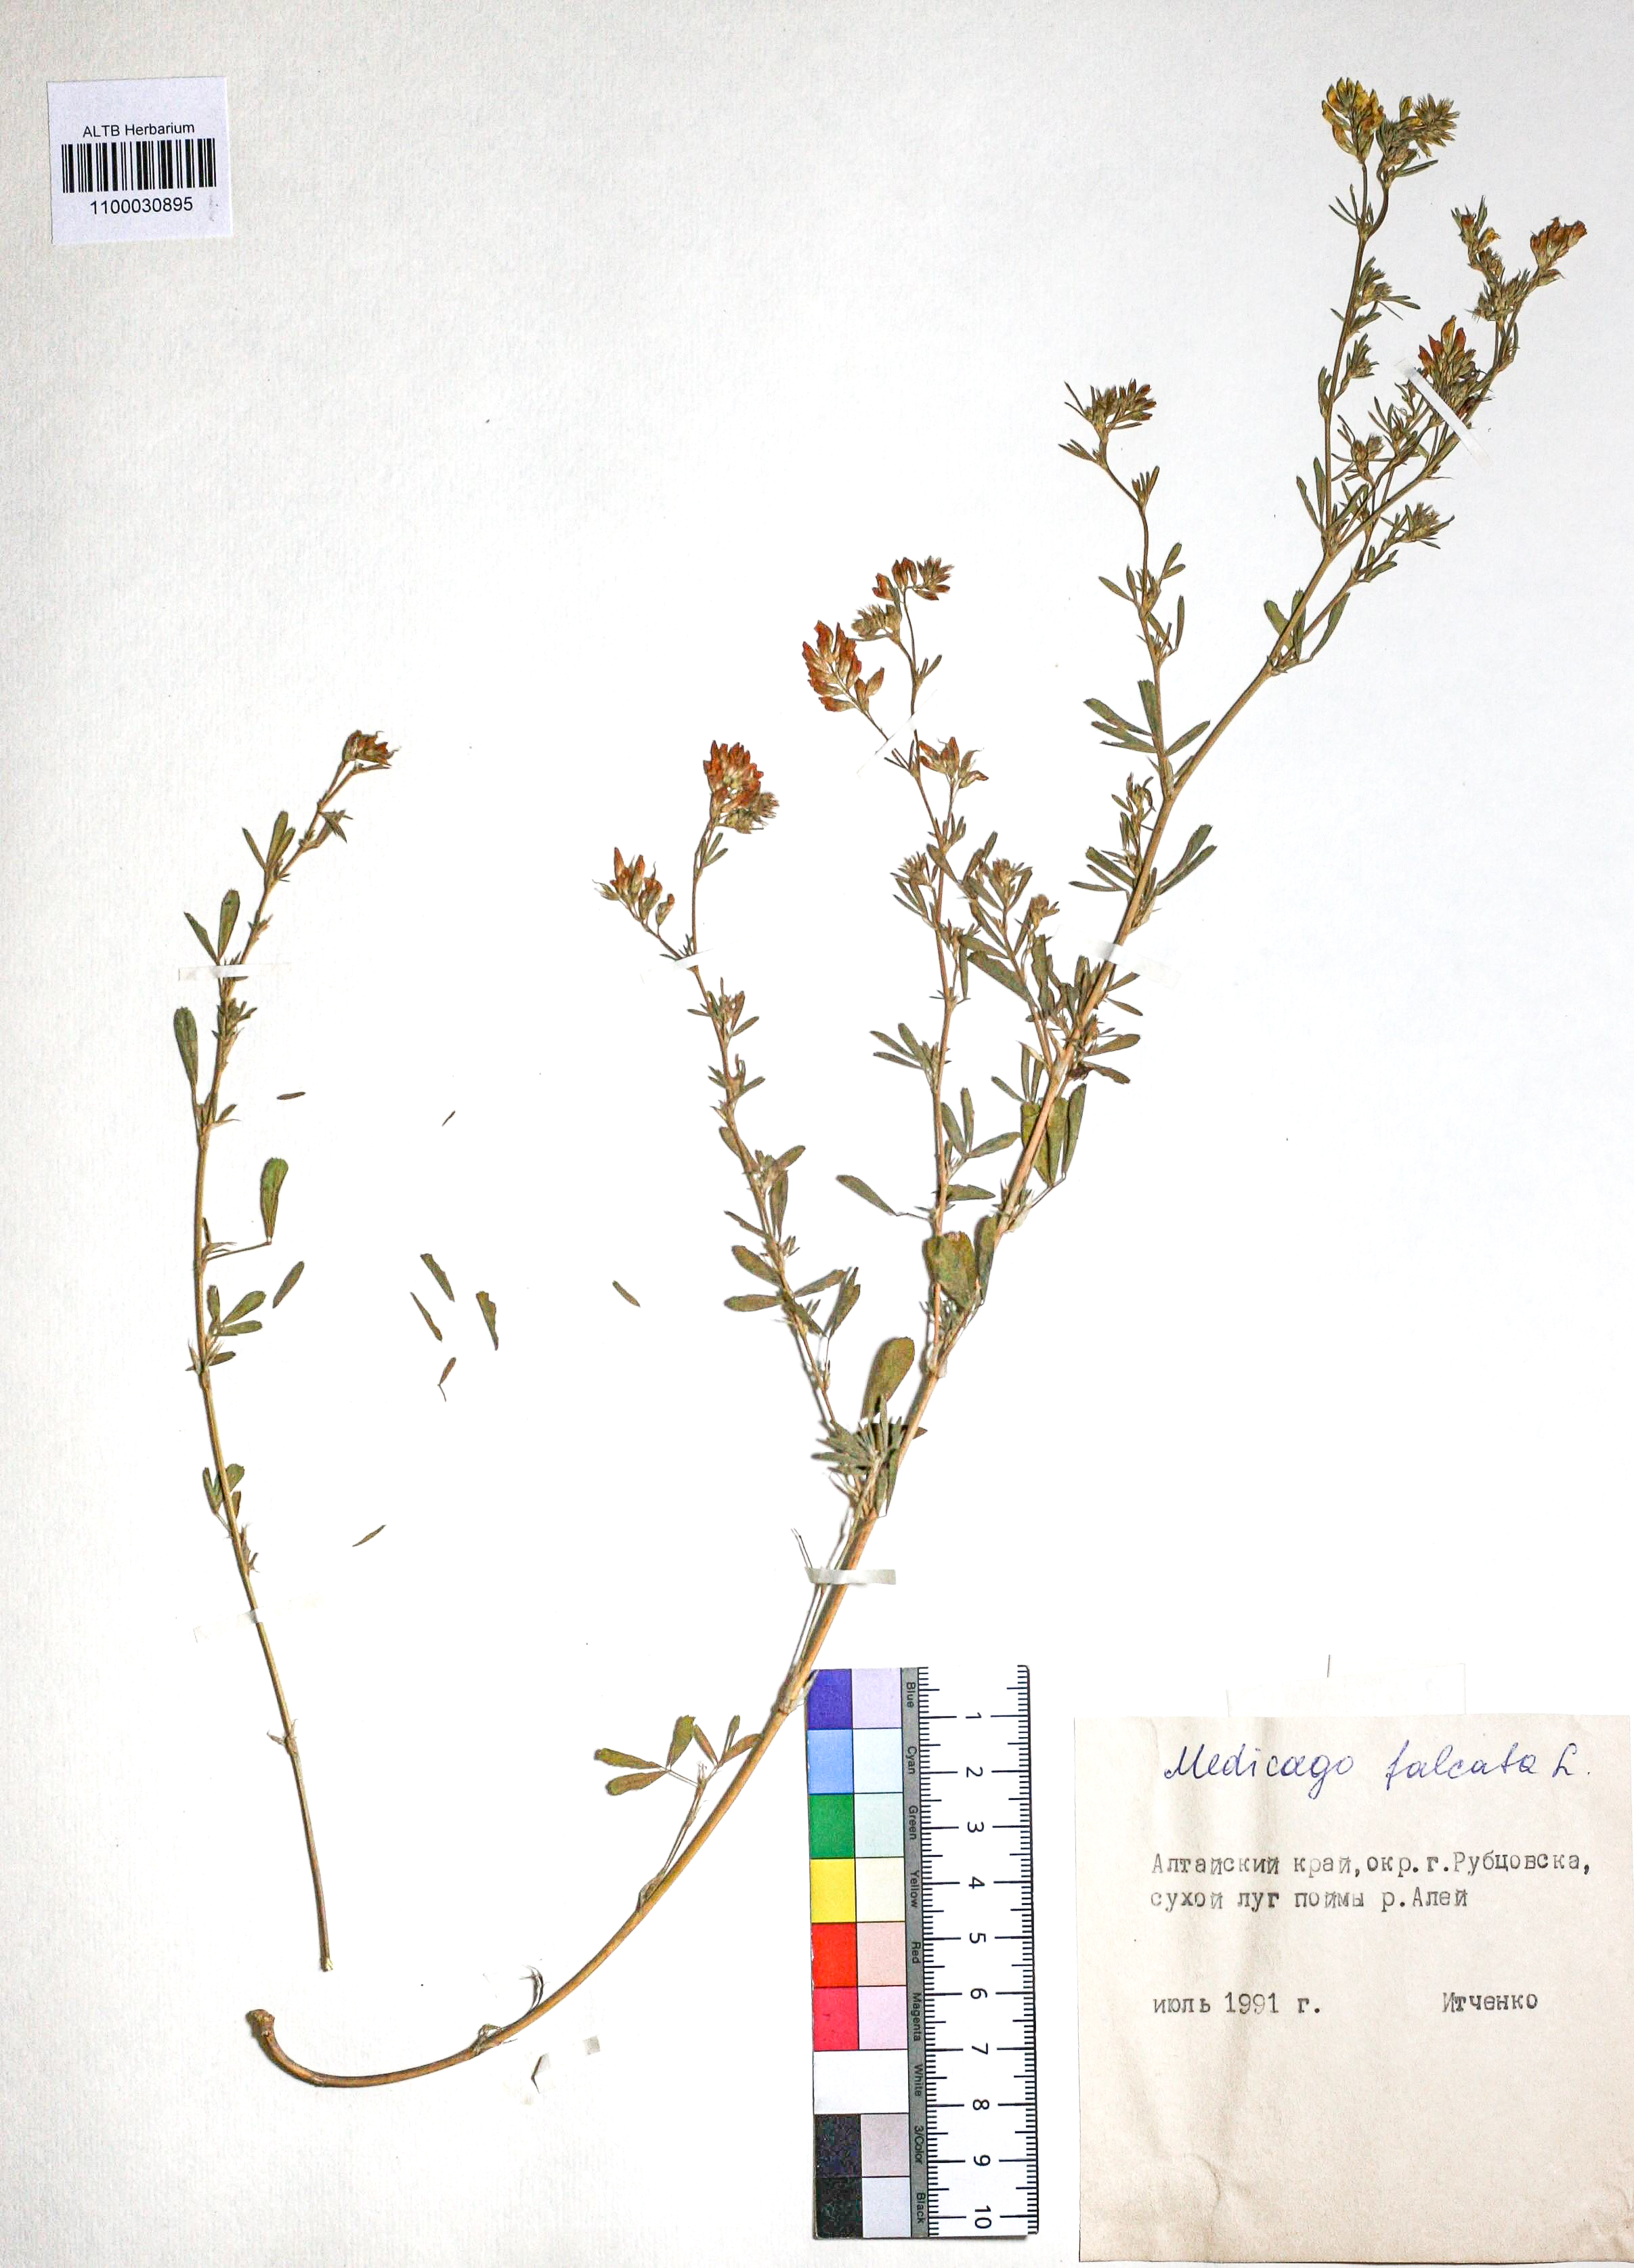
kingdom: Plantae
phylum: Tracheophyta
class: Magnoliopsida
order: Fabales
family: Fabaceae
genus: Medicago
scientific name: Medicago falcata
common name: Sickle medick
